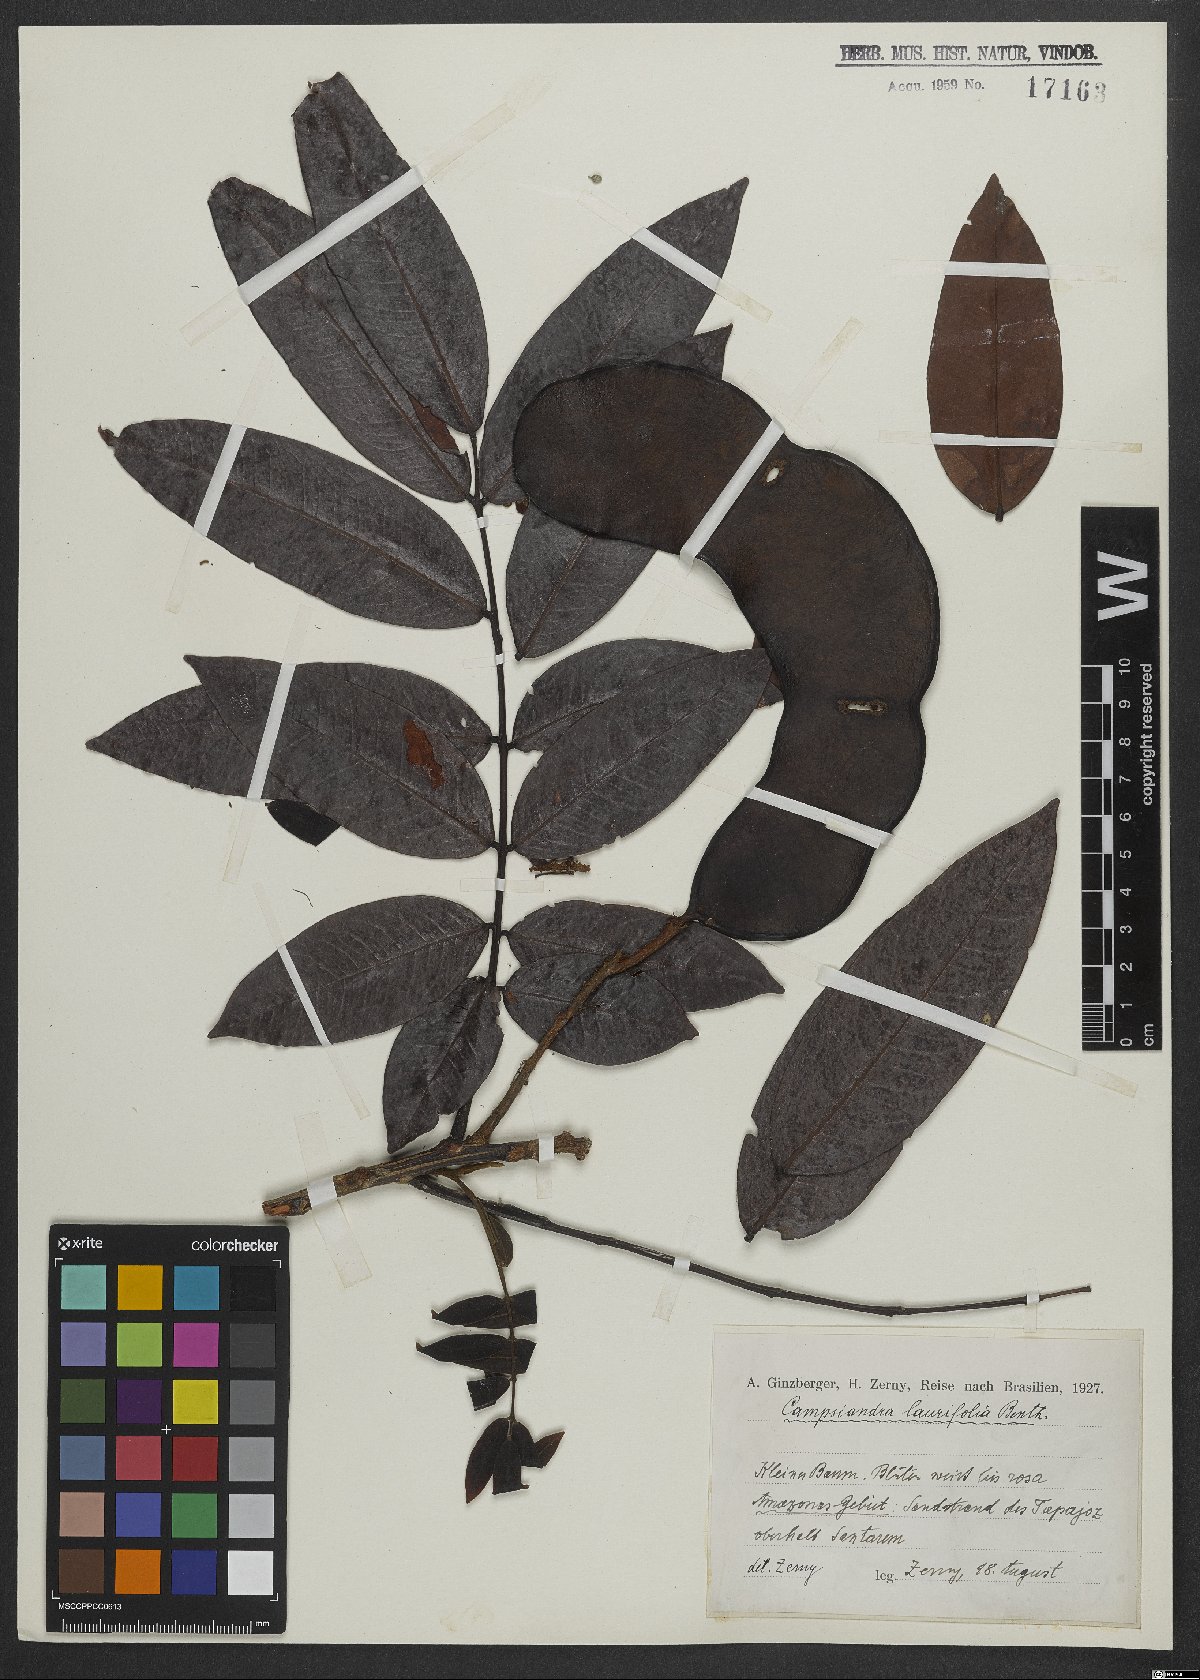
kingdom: Plantae
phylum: Tracheophyta
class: Magnoliopsida
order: Fabales
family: Fabaceae
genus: Campsiandra
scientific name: Campsiandra laurifolia
